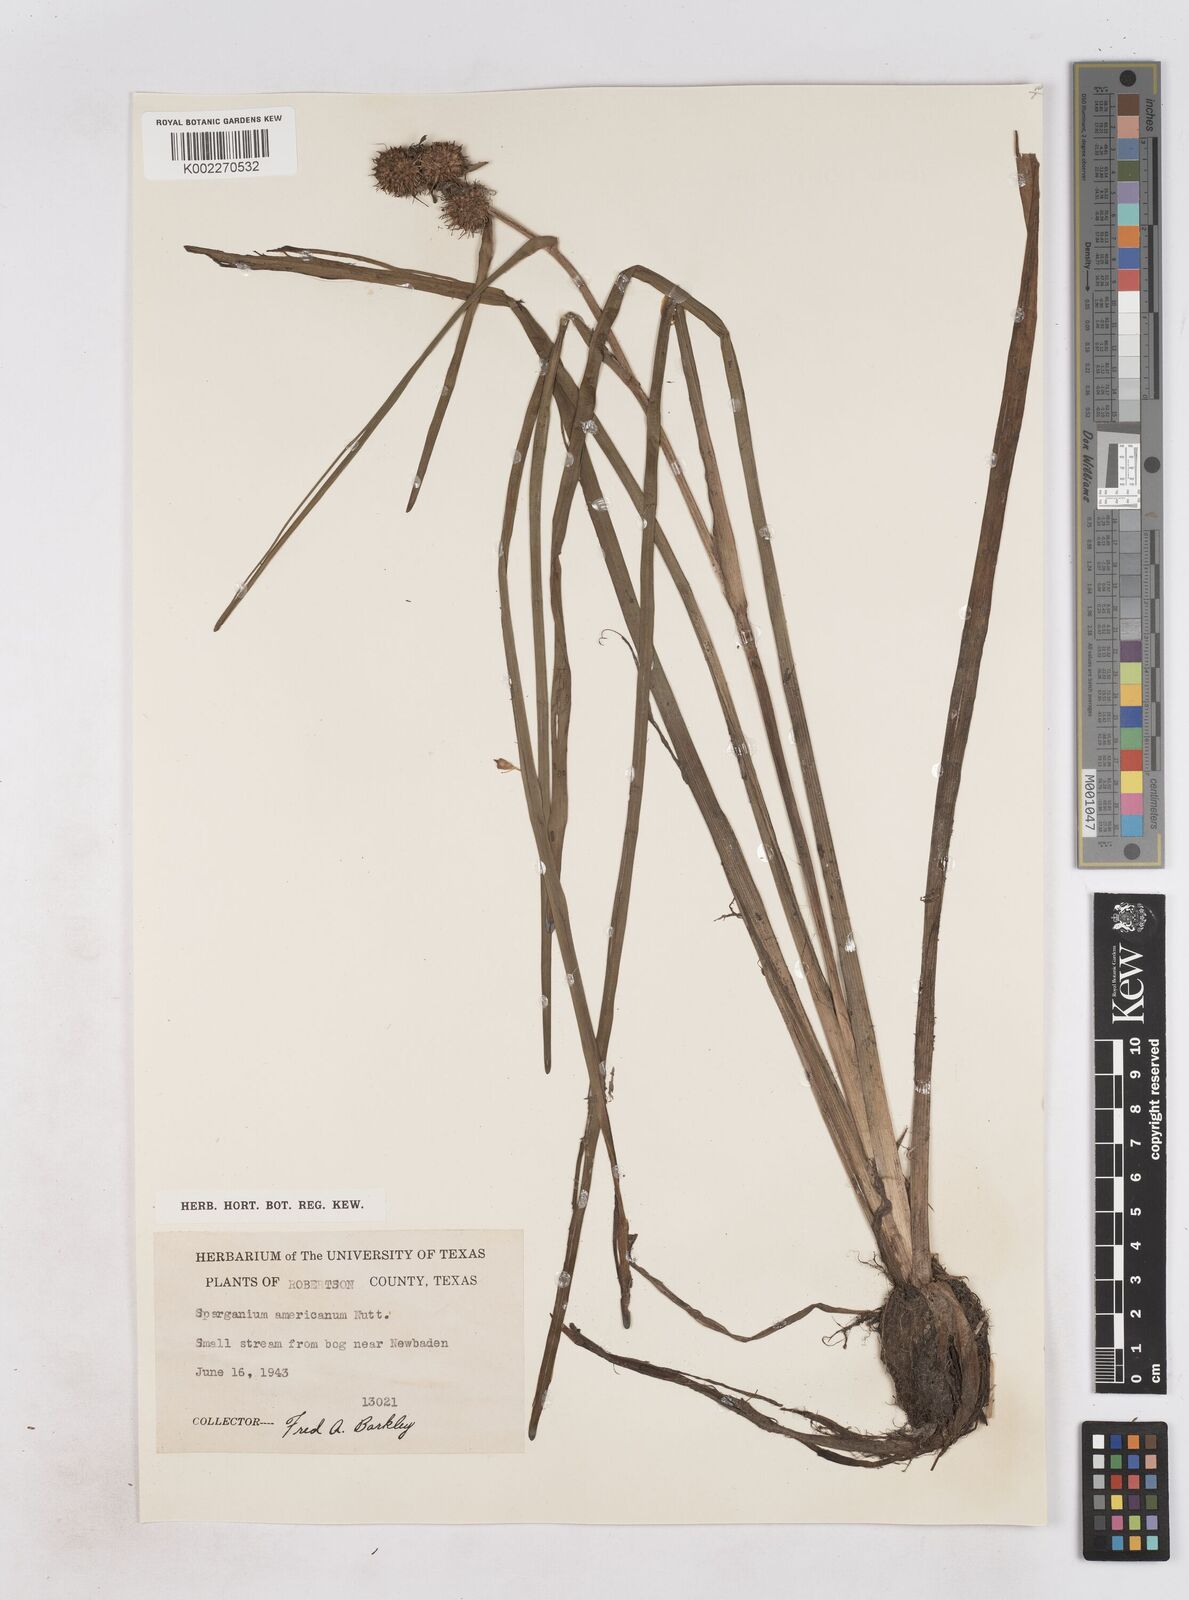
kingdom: Plantae
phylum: Tracheophyta
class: Liliopsida
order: Poales
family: Typhaceae
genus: Sparganium
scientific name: Sparganium americanum
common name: American burreed
